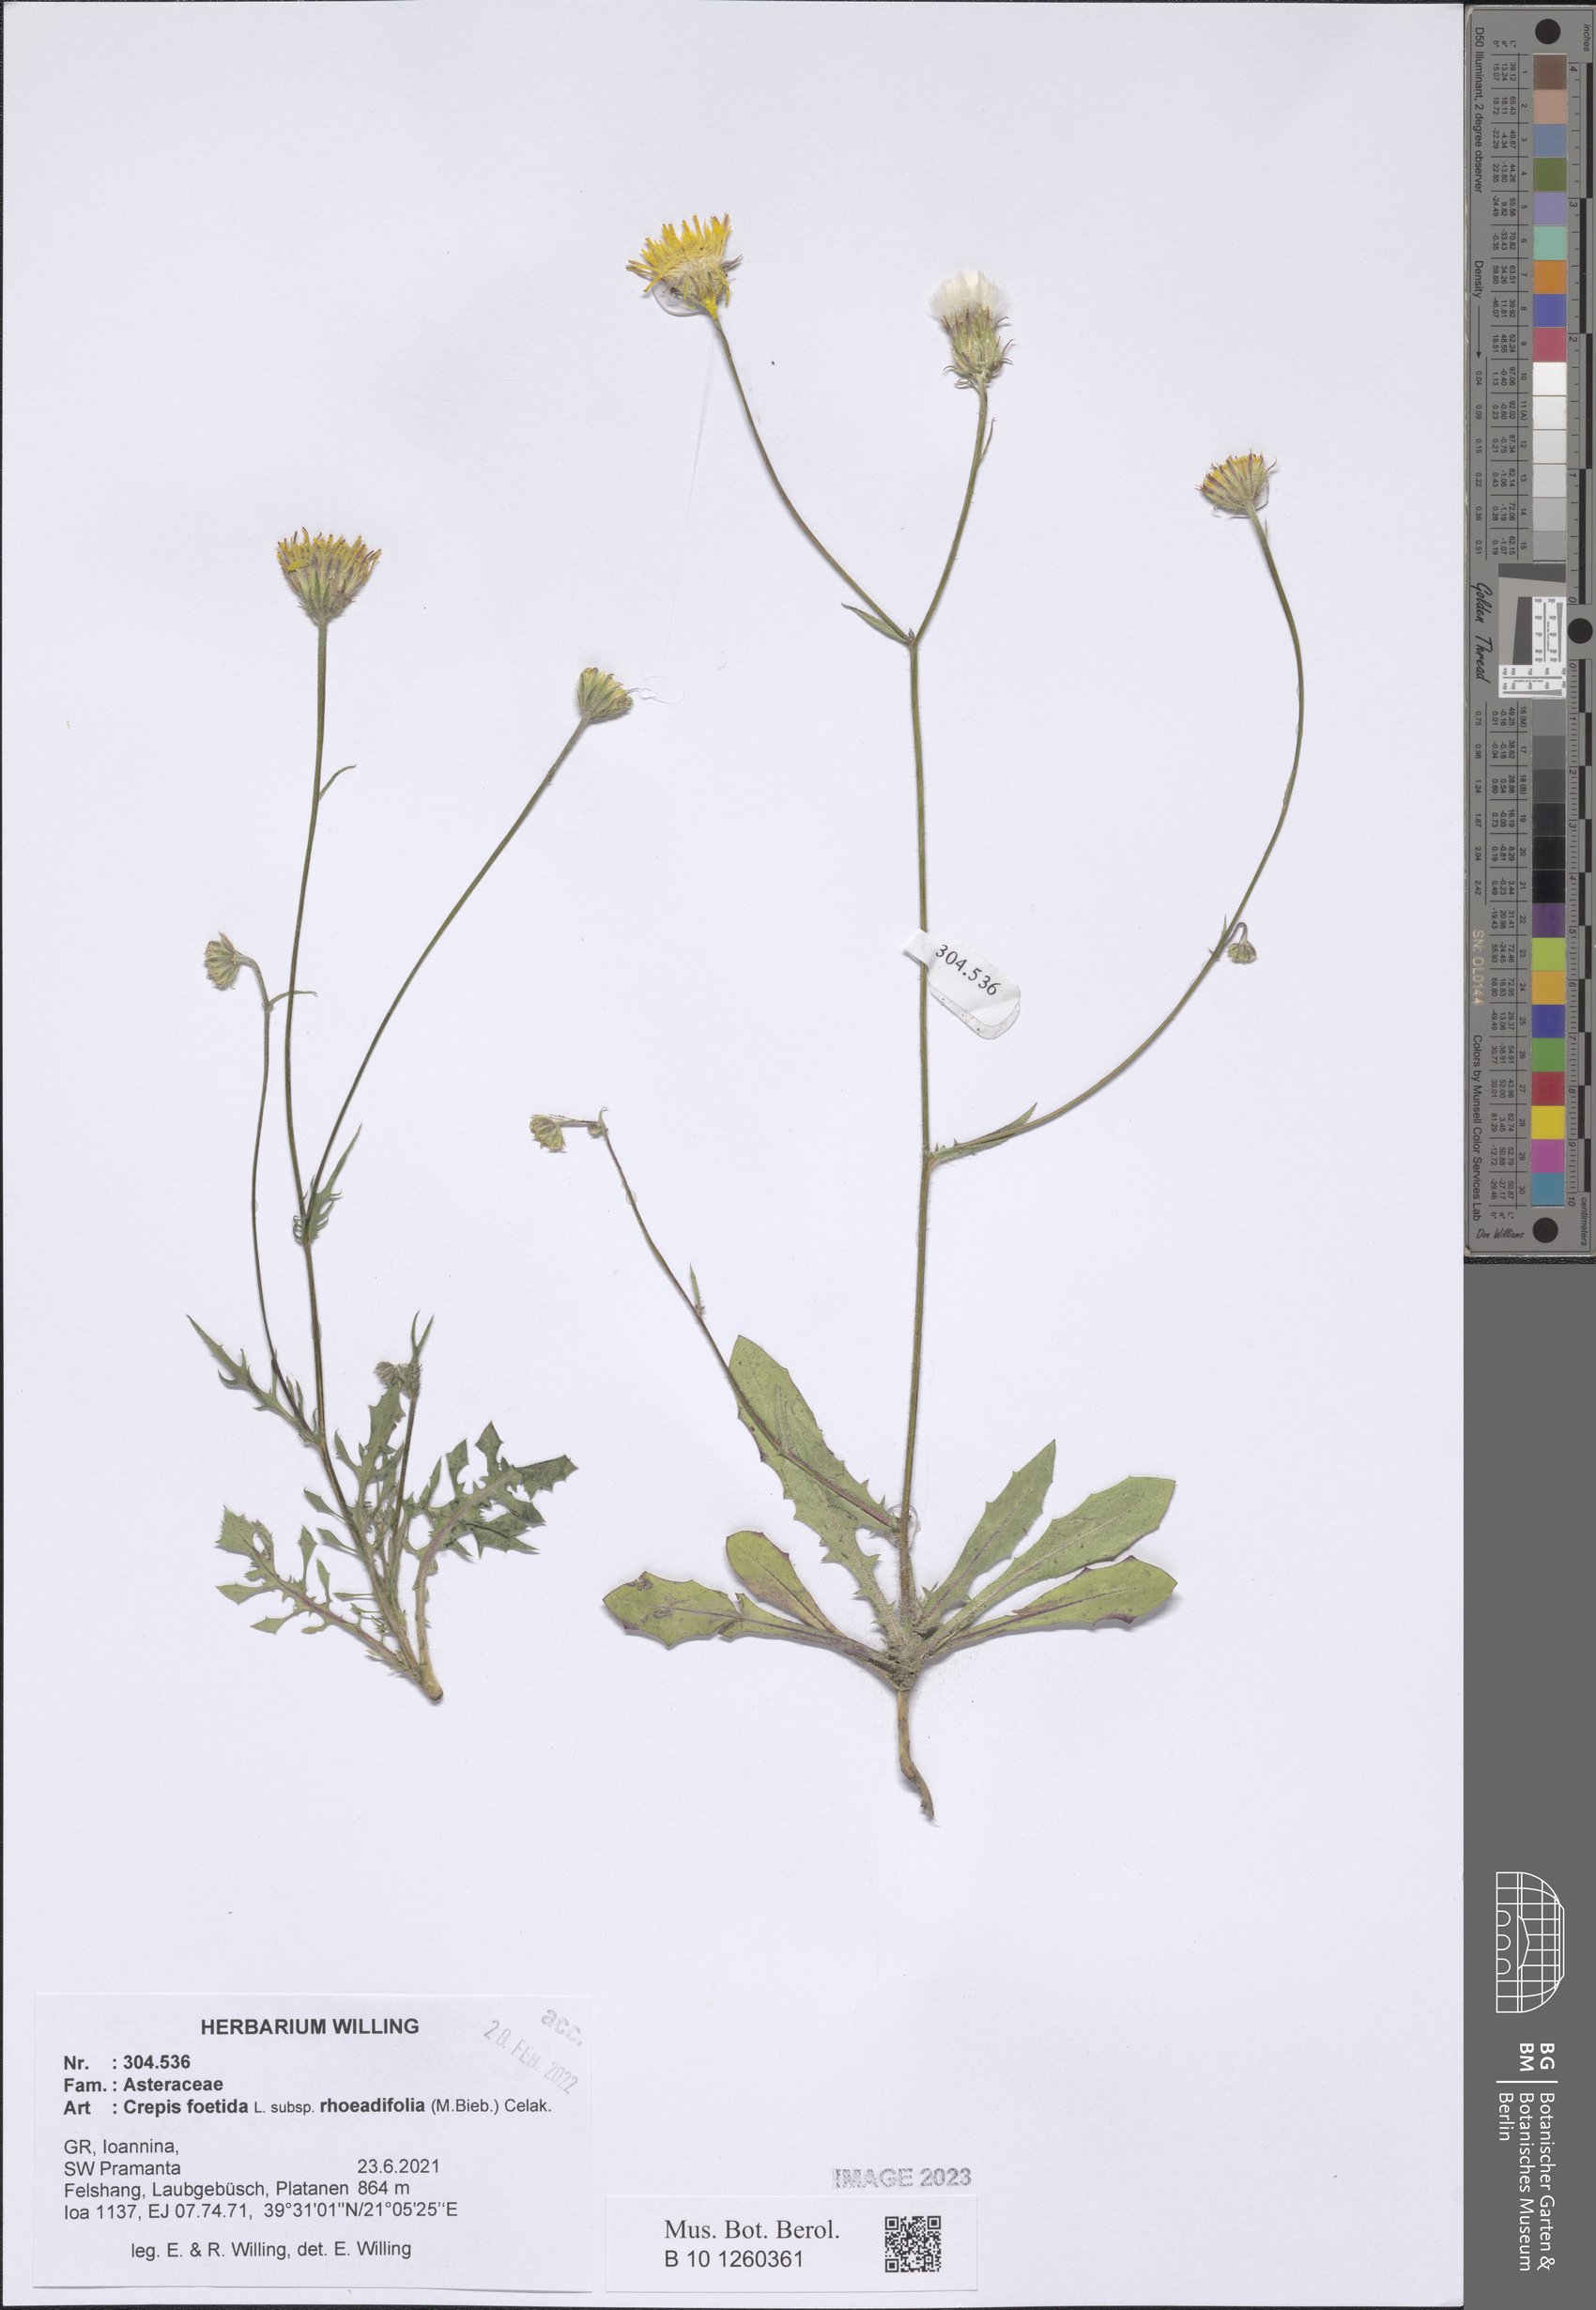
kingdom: Plantae
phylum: Tracheophyta
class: Magnoliopsida
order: Asterales
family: Asteraceae
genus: Crepis
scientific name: Crepis foetida
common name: Stinking hawk's-beard
